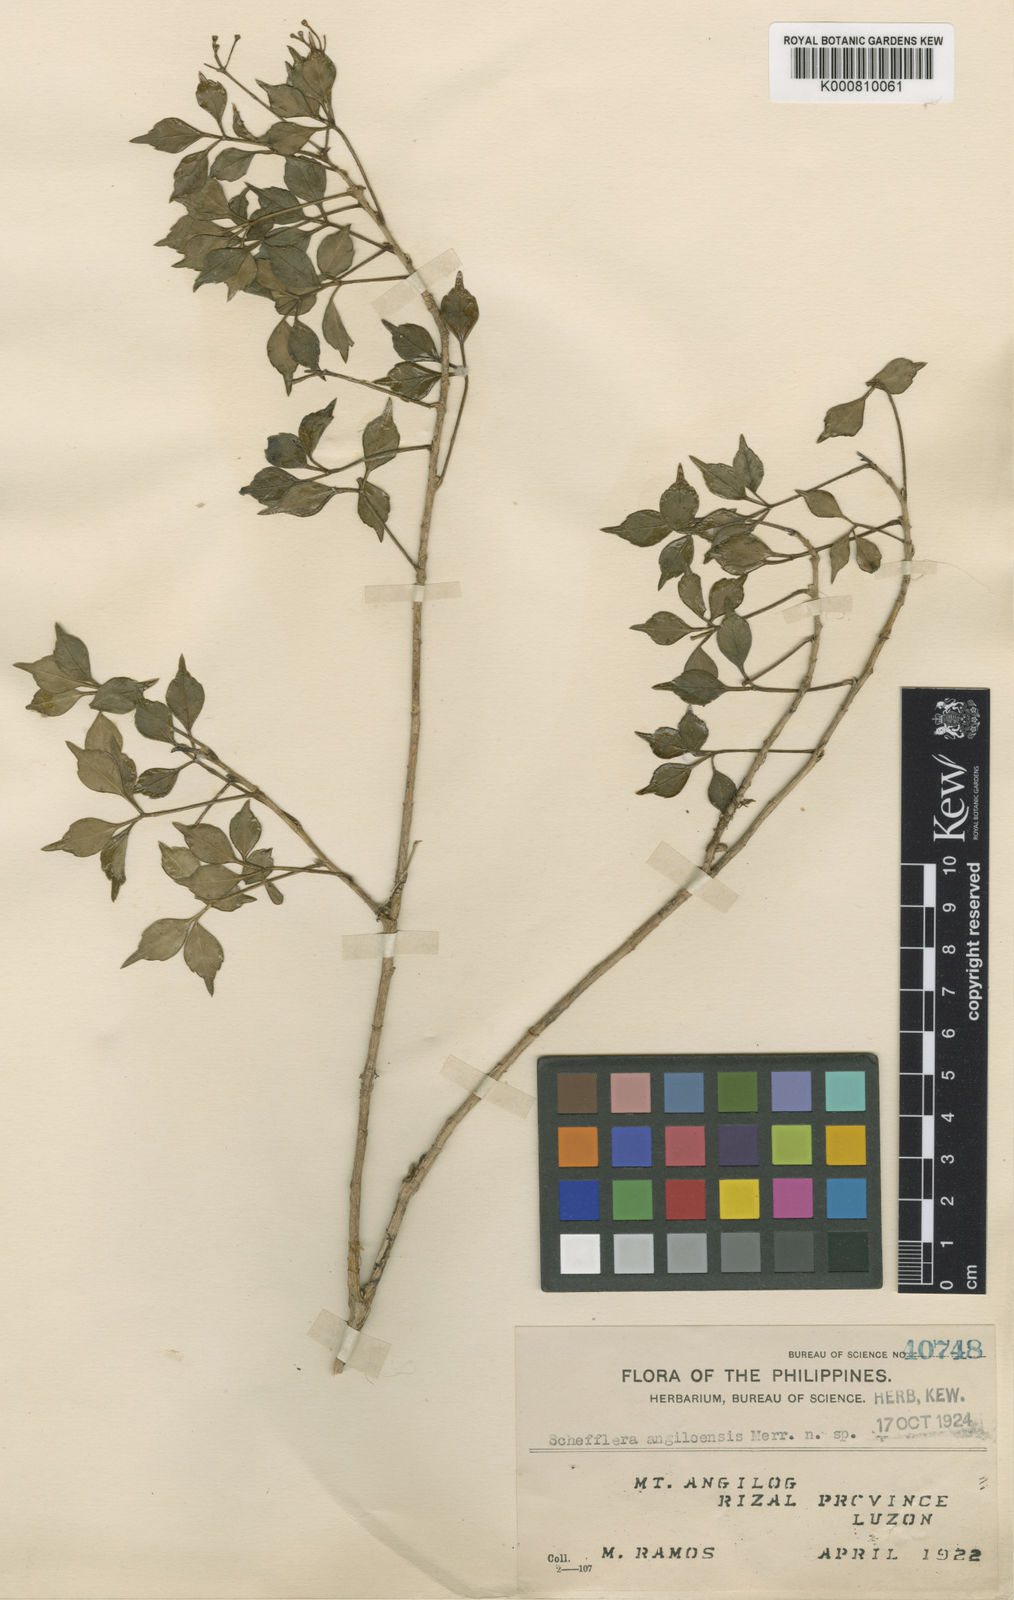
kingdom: Plantae
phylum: Tracheophyta
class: Magnoliopsida
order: Apiales
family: Araliaceae
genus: Heptapleurum
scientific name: Heptapleurum angilogense
